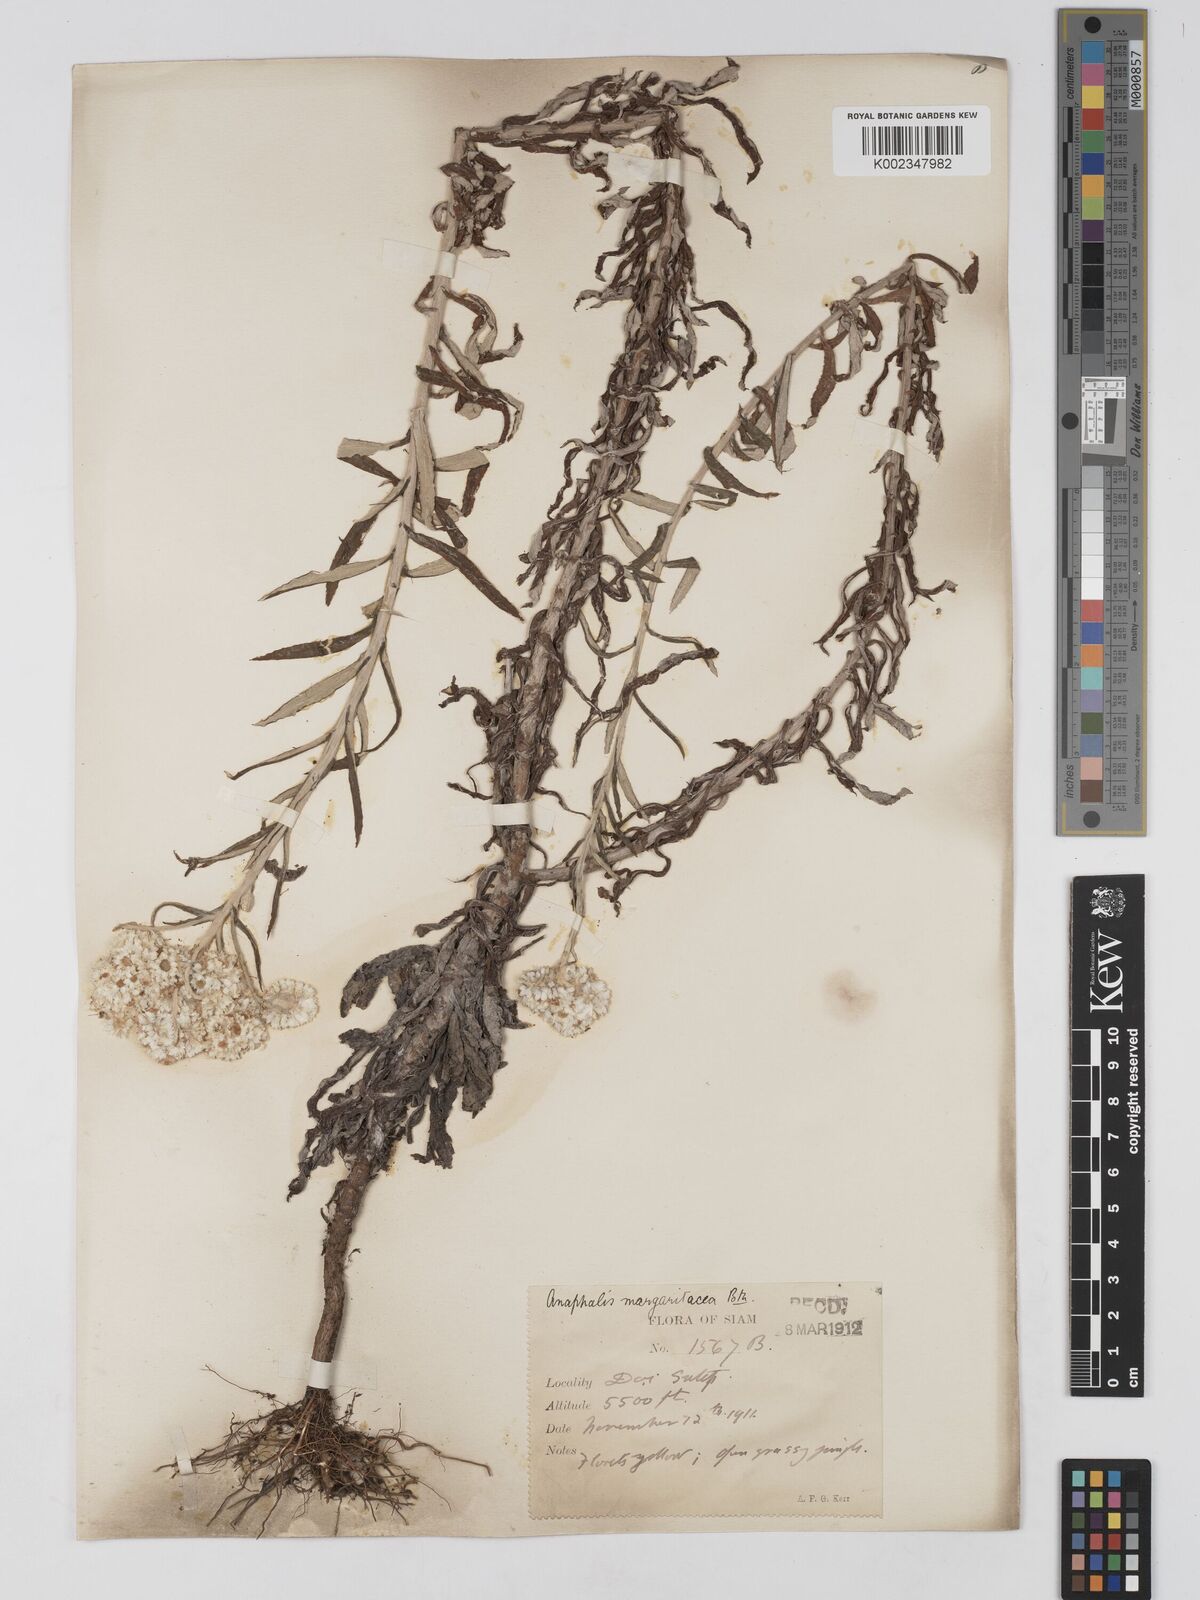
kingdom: Plantae
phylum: Tracheophyta
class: Magnoliopsida
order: Asterales
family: Asteraceae
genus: Anaphalis
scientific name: Anaphalis margaritacea
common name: Pearly everlasting
